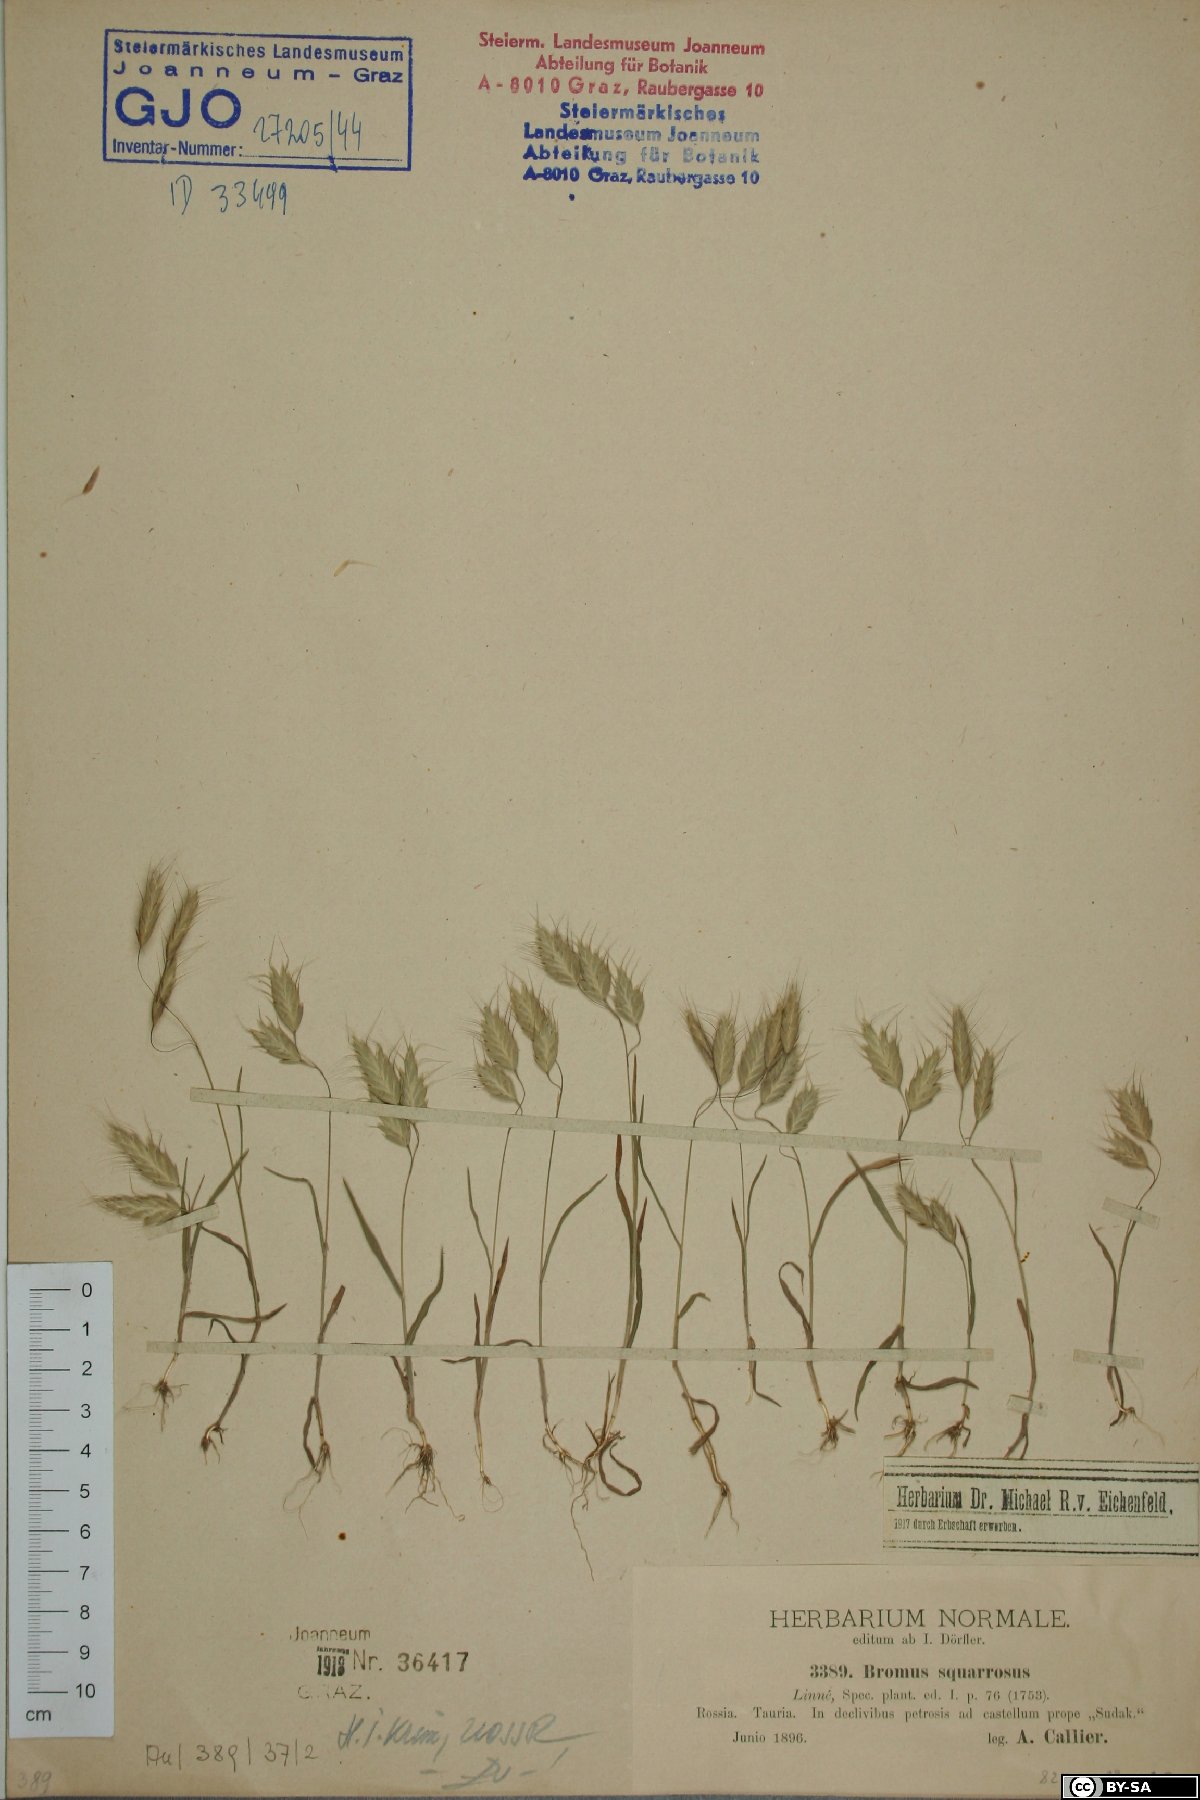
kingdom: Plantae
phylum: Tracheophyta
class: Liliopsida
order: Poales
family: Poaceae
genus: Bromus
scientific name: Bromus squarrosus
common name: Corn brome
